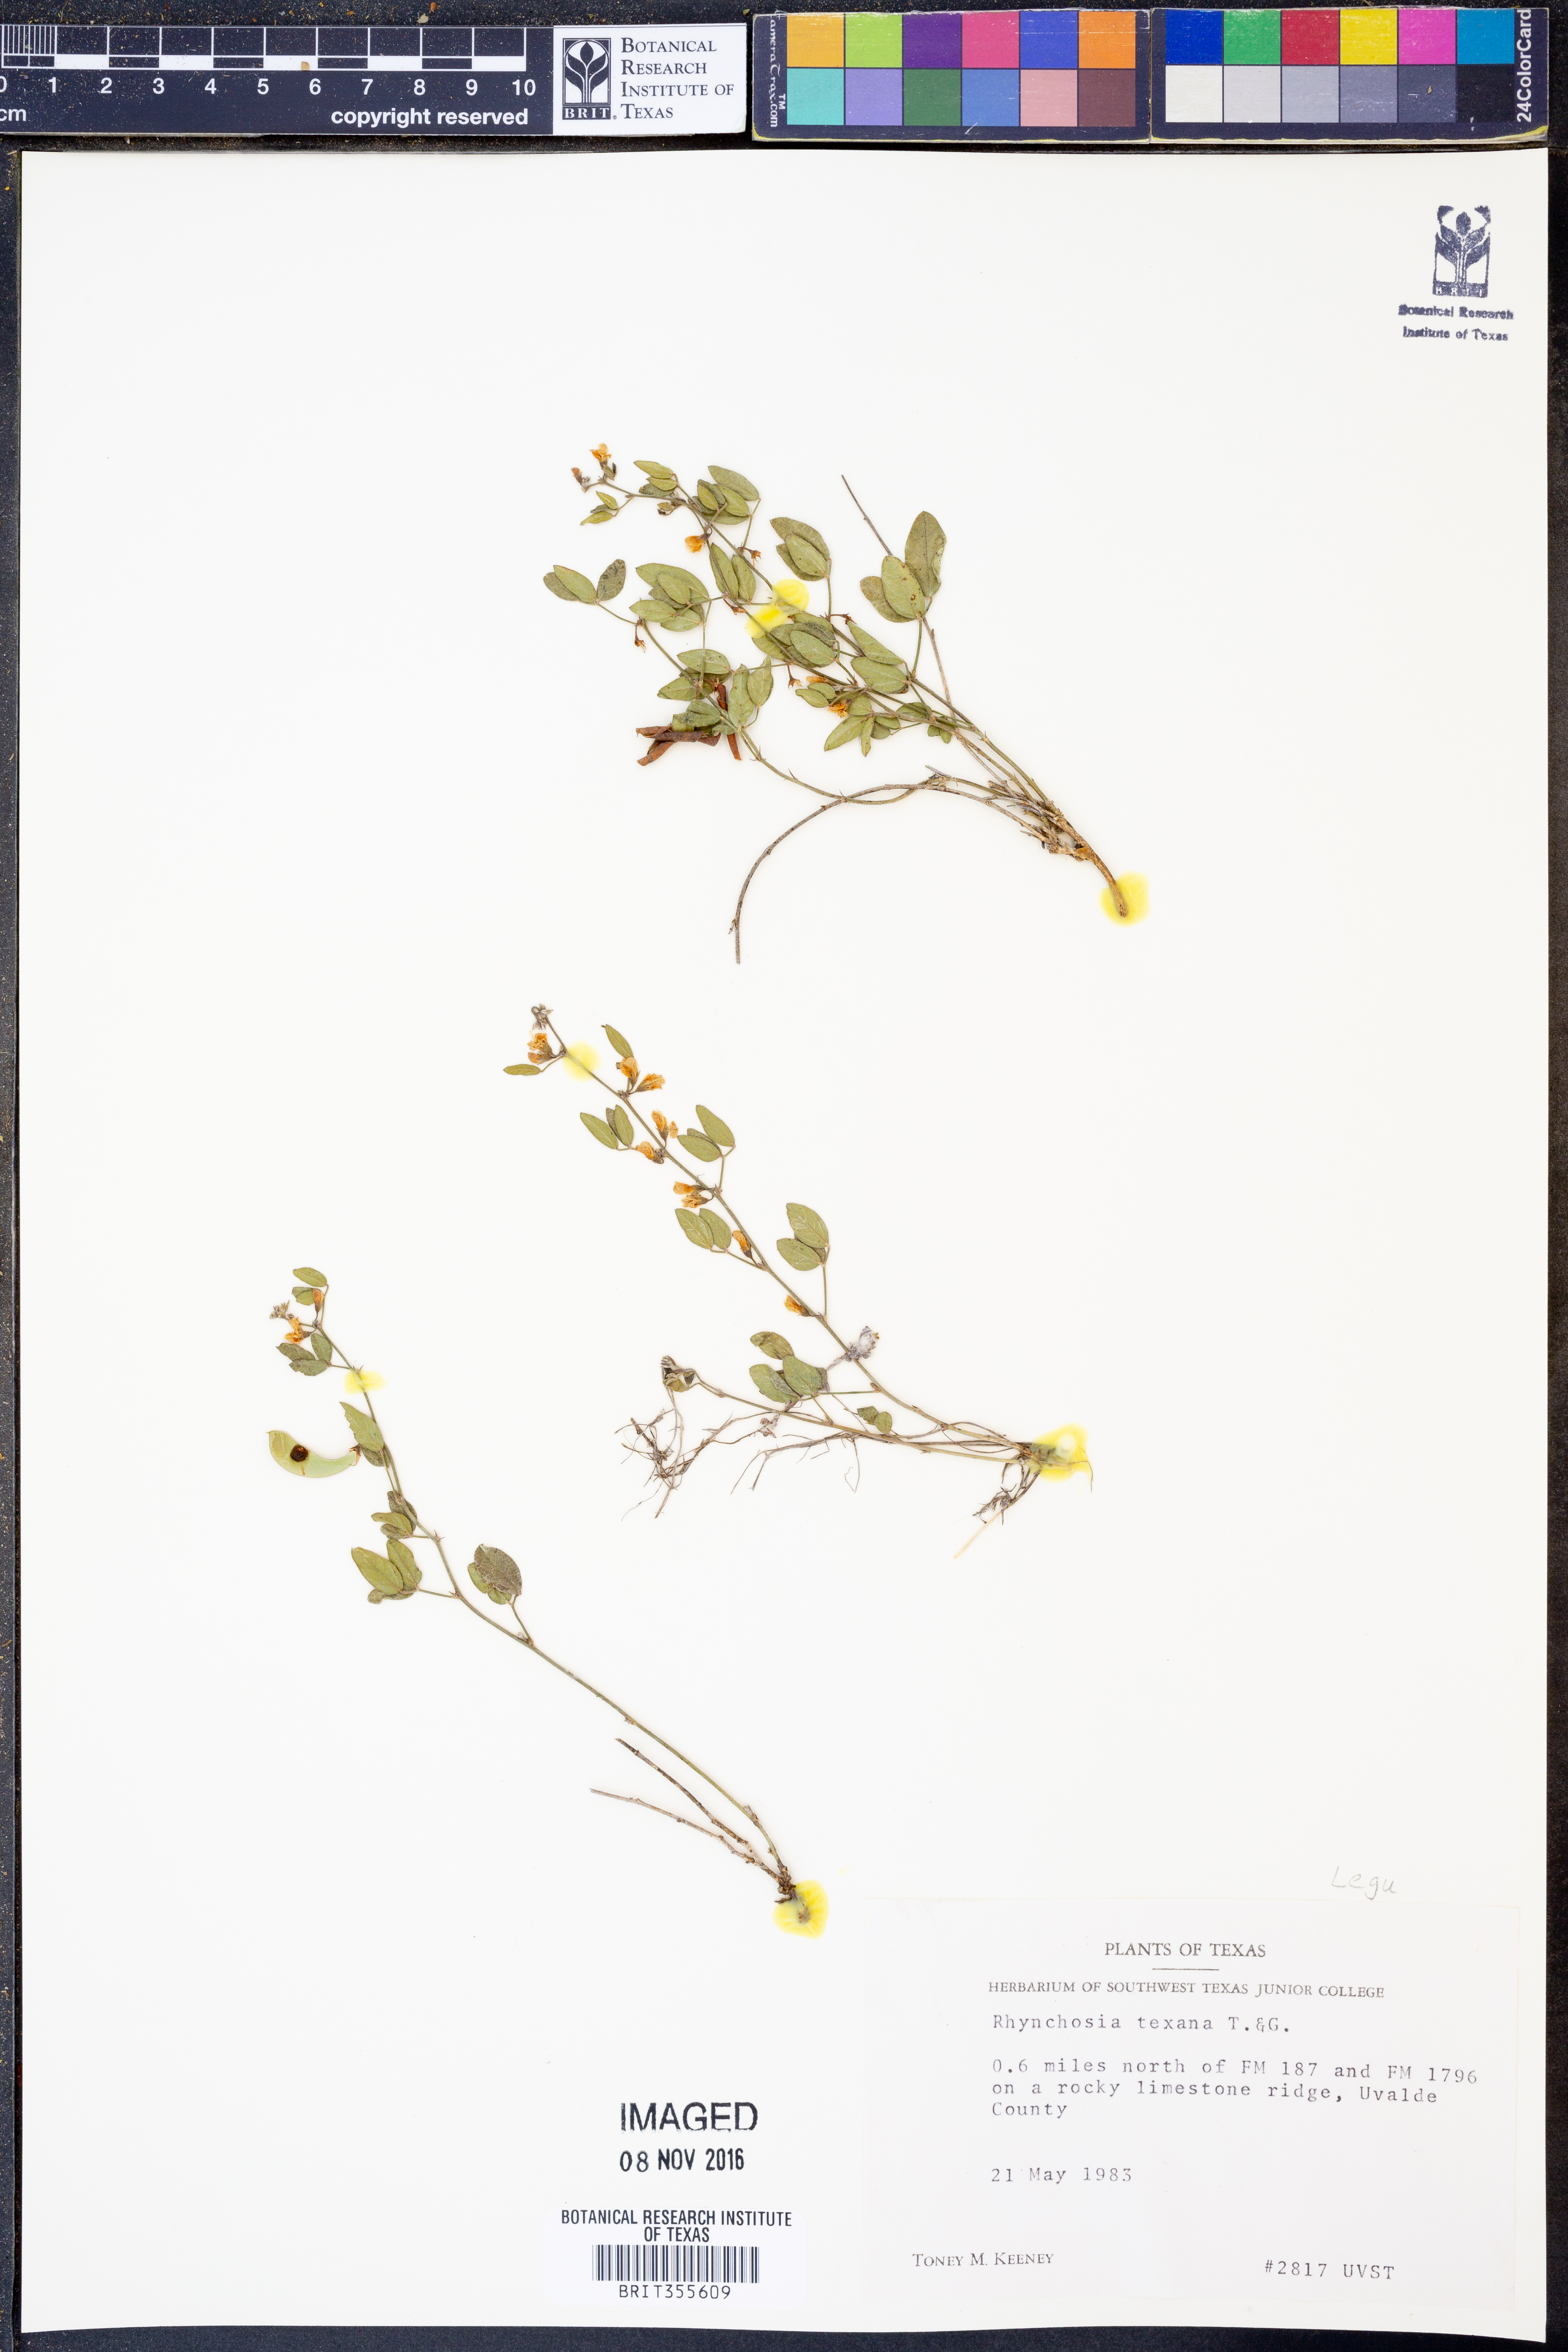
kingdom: Plantae
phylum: Tracheophyta
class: Magnoliopsida
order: Fabales
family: Fabaceae
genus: Rhynchosia
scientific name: Rhynchosia senna
